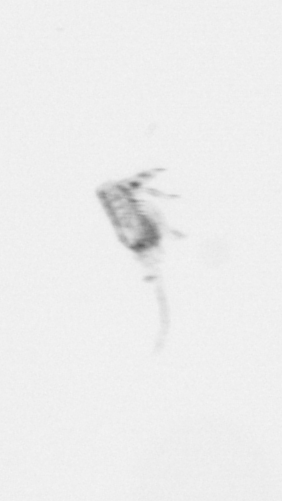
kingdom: Animalia
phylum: Arthropoda
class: Copepoda
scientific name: Copepoda
